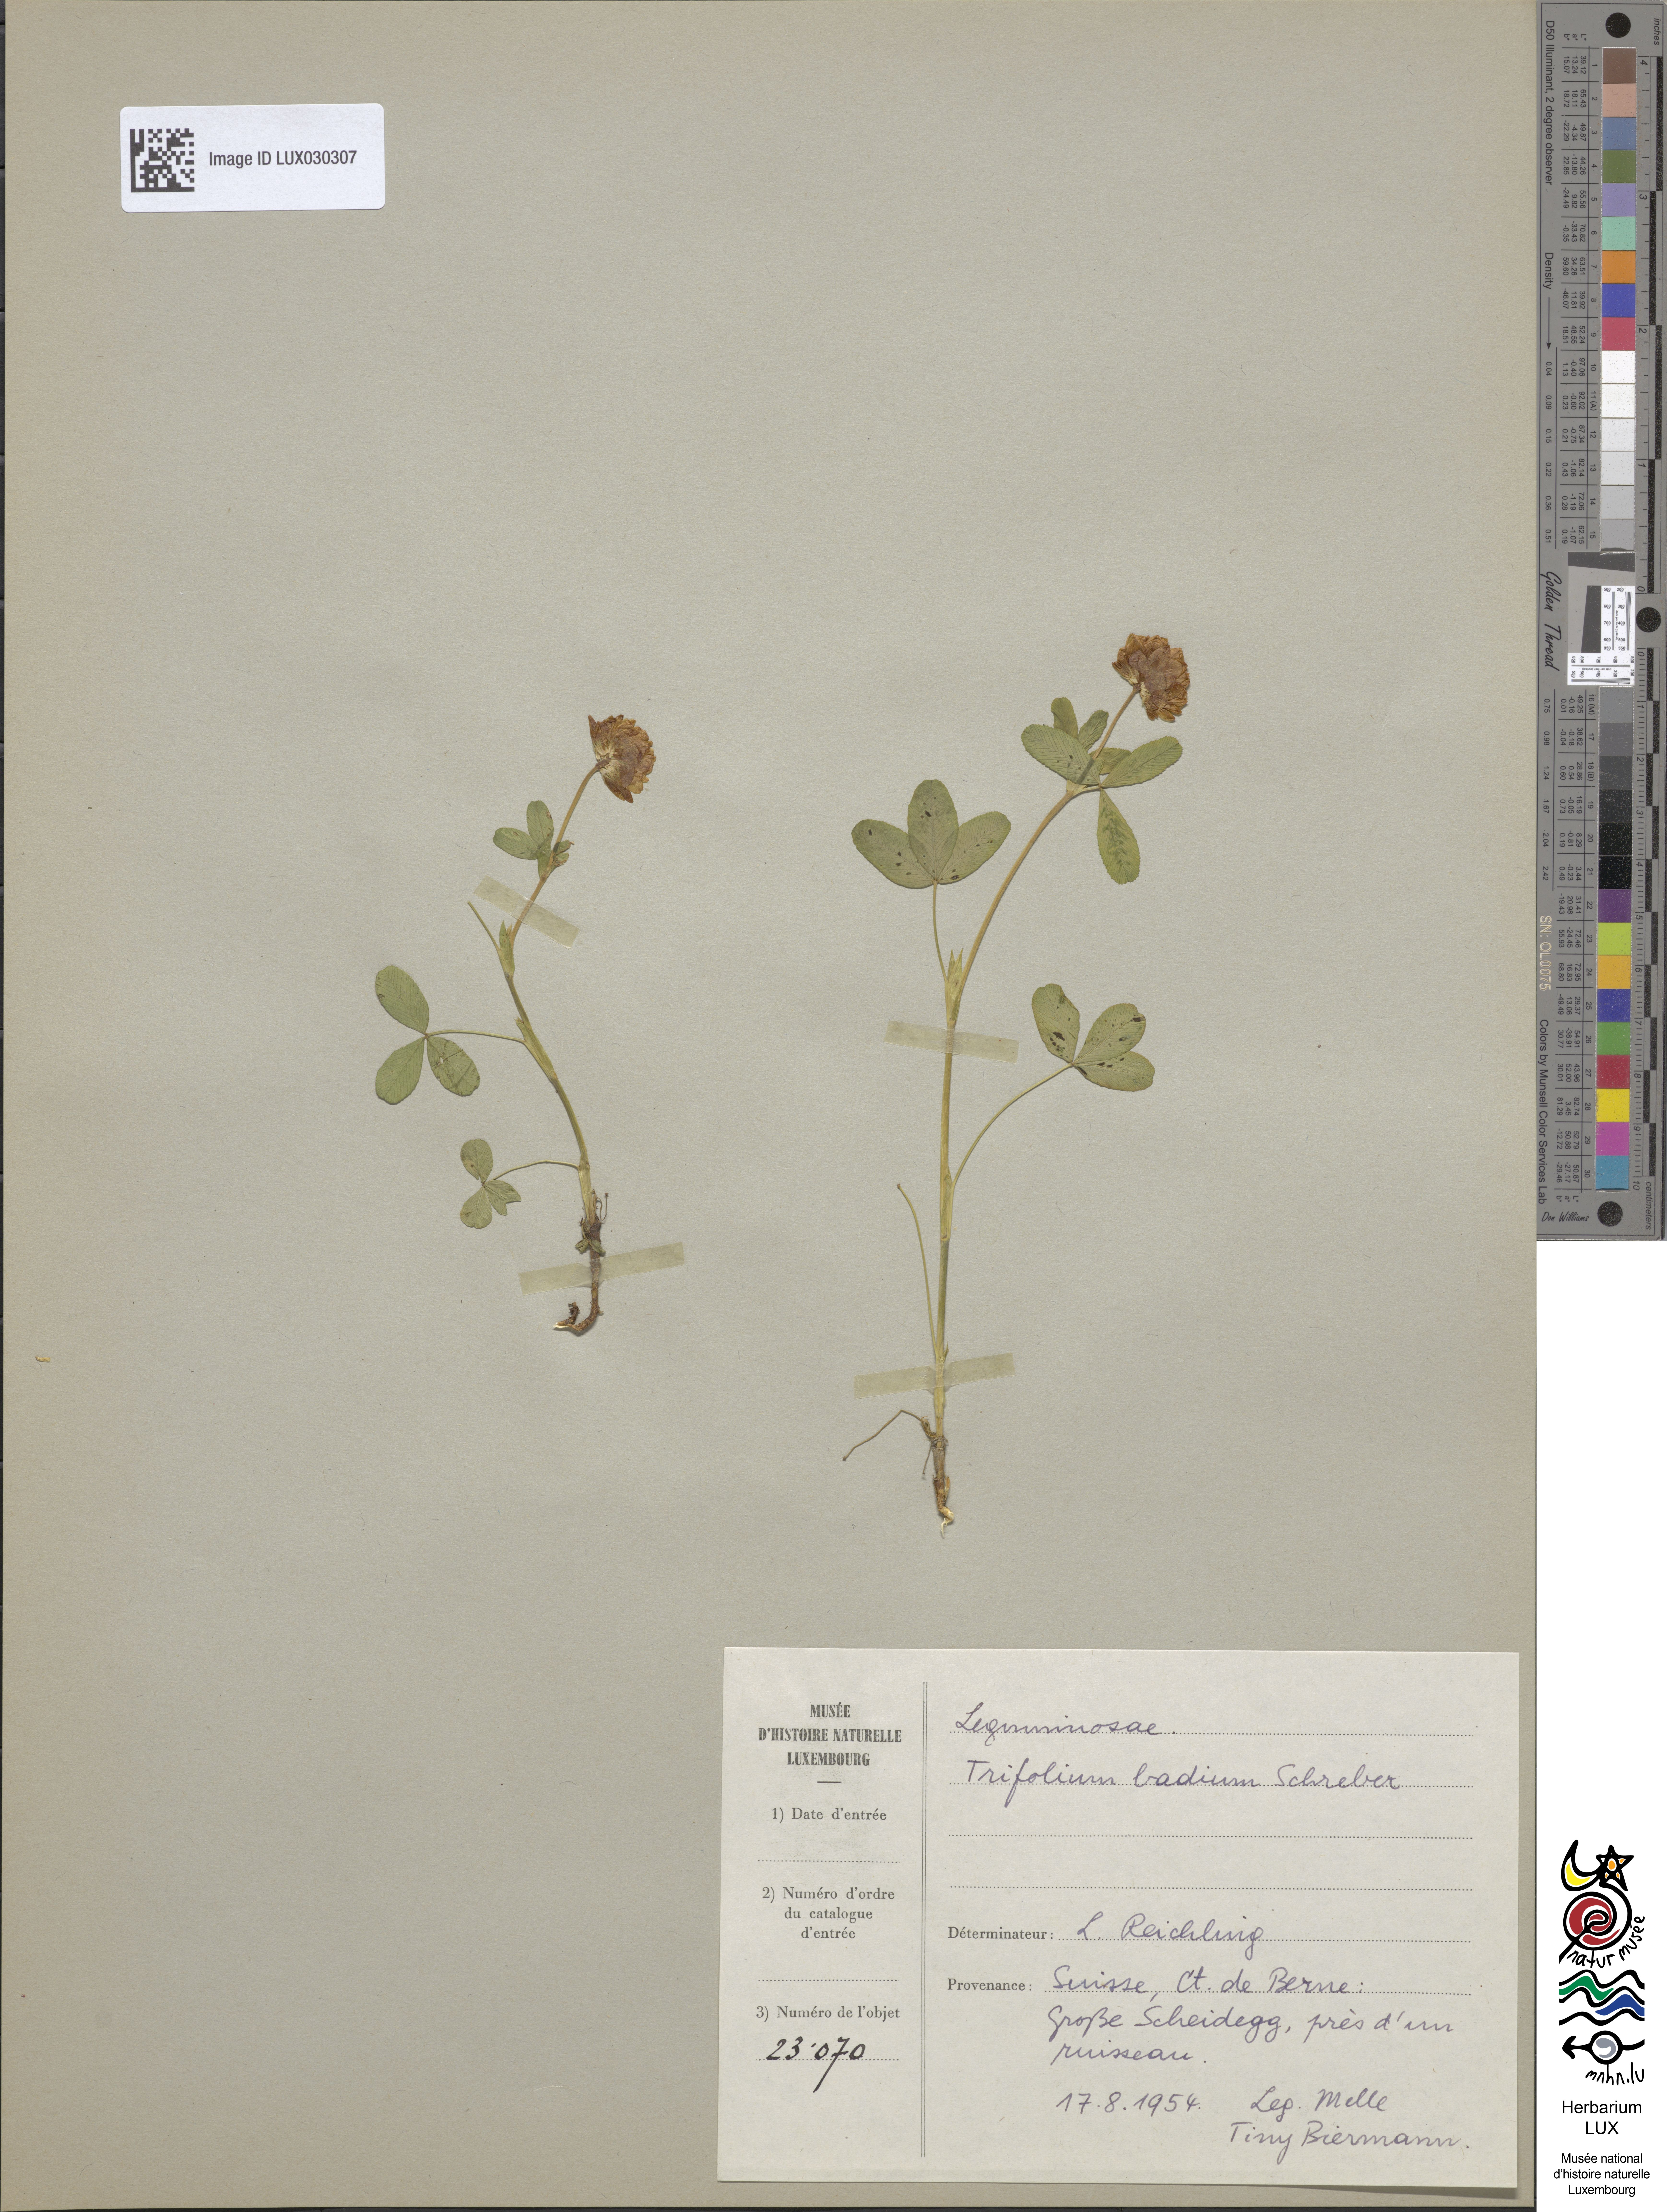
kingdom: Plantae
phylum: Tracheophyta
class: Magnoliopsida
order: Fabales
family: Fabaceae
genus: Trifolium
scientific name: Trifolium badium
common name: Brown clover
